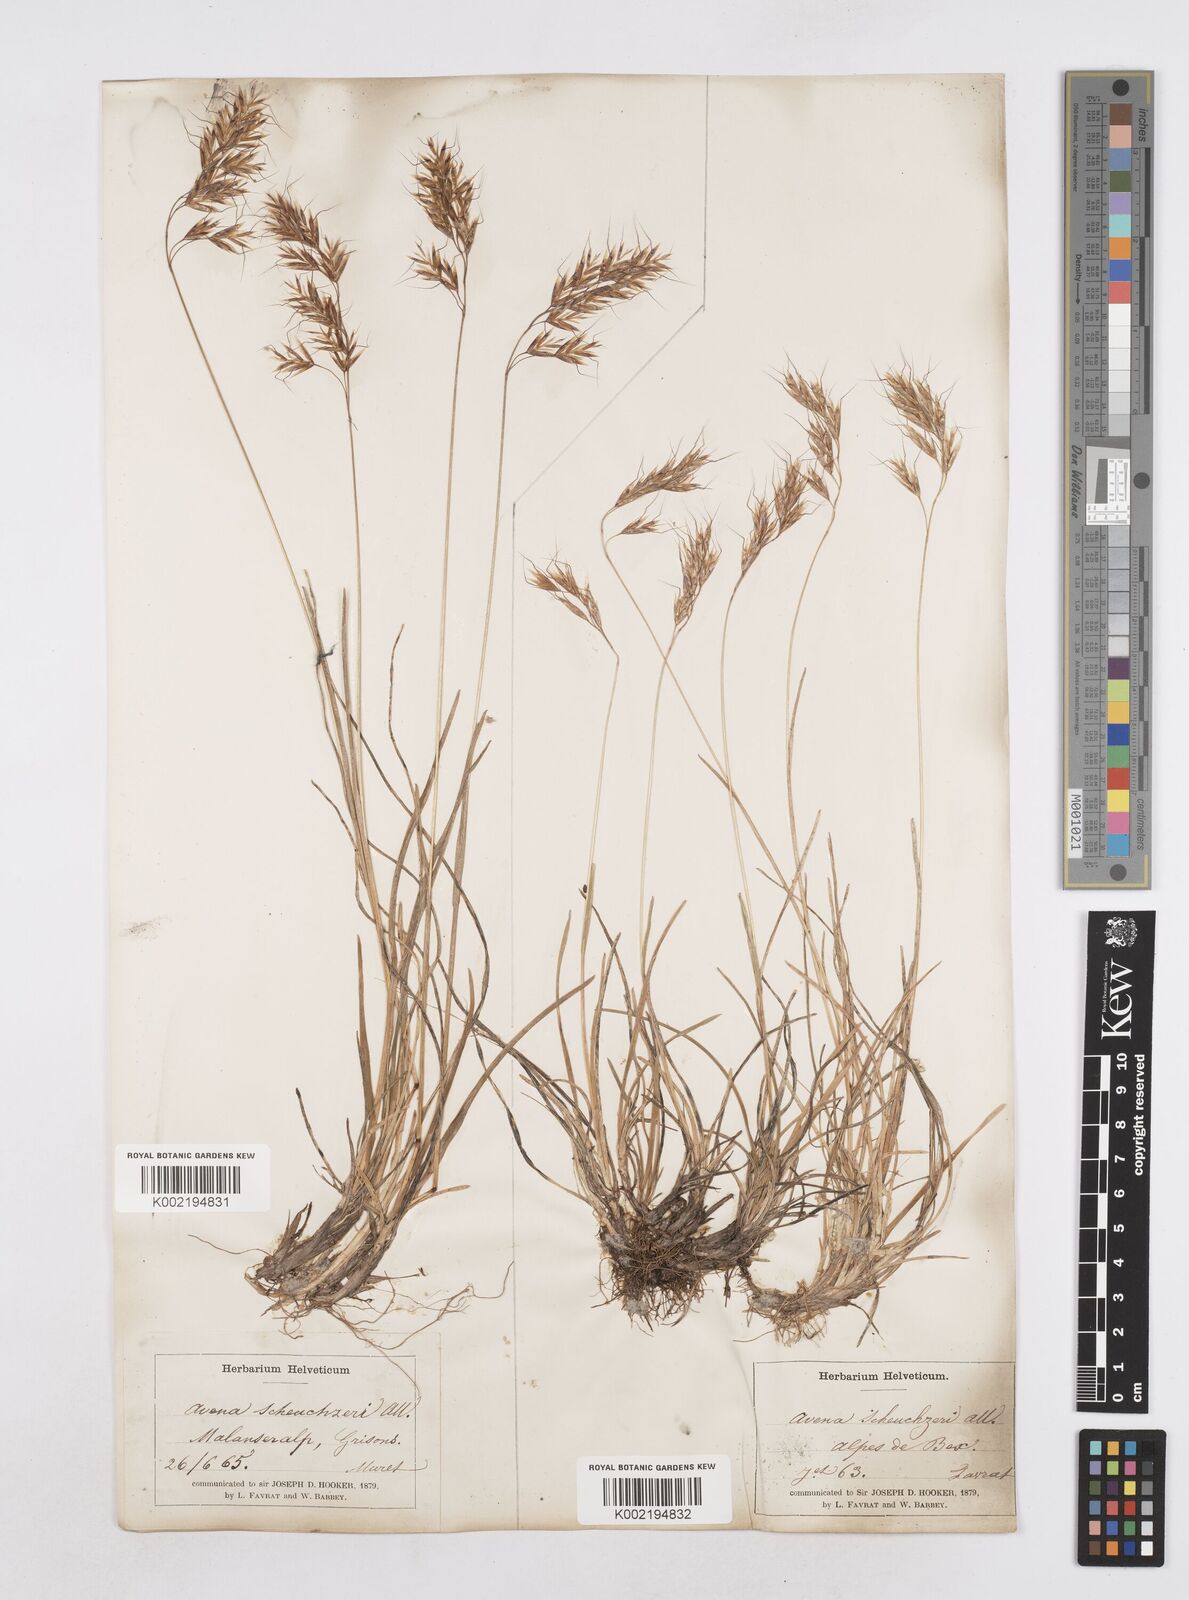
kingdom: Plantae
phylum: Tracheophyta
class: Liliopsida
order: Poales
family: Poaceae
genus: Helictotrichon
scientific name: Helictotrichon
